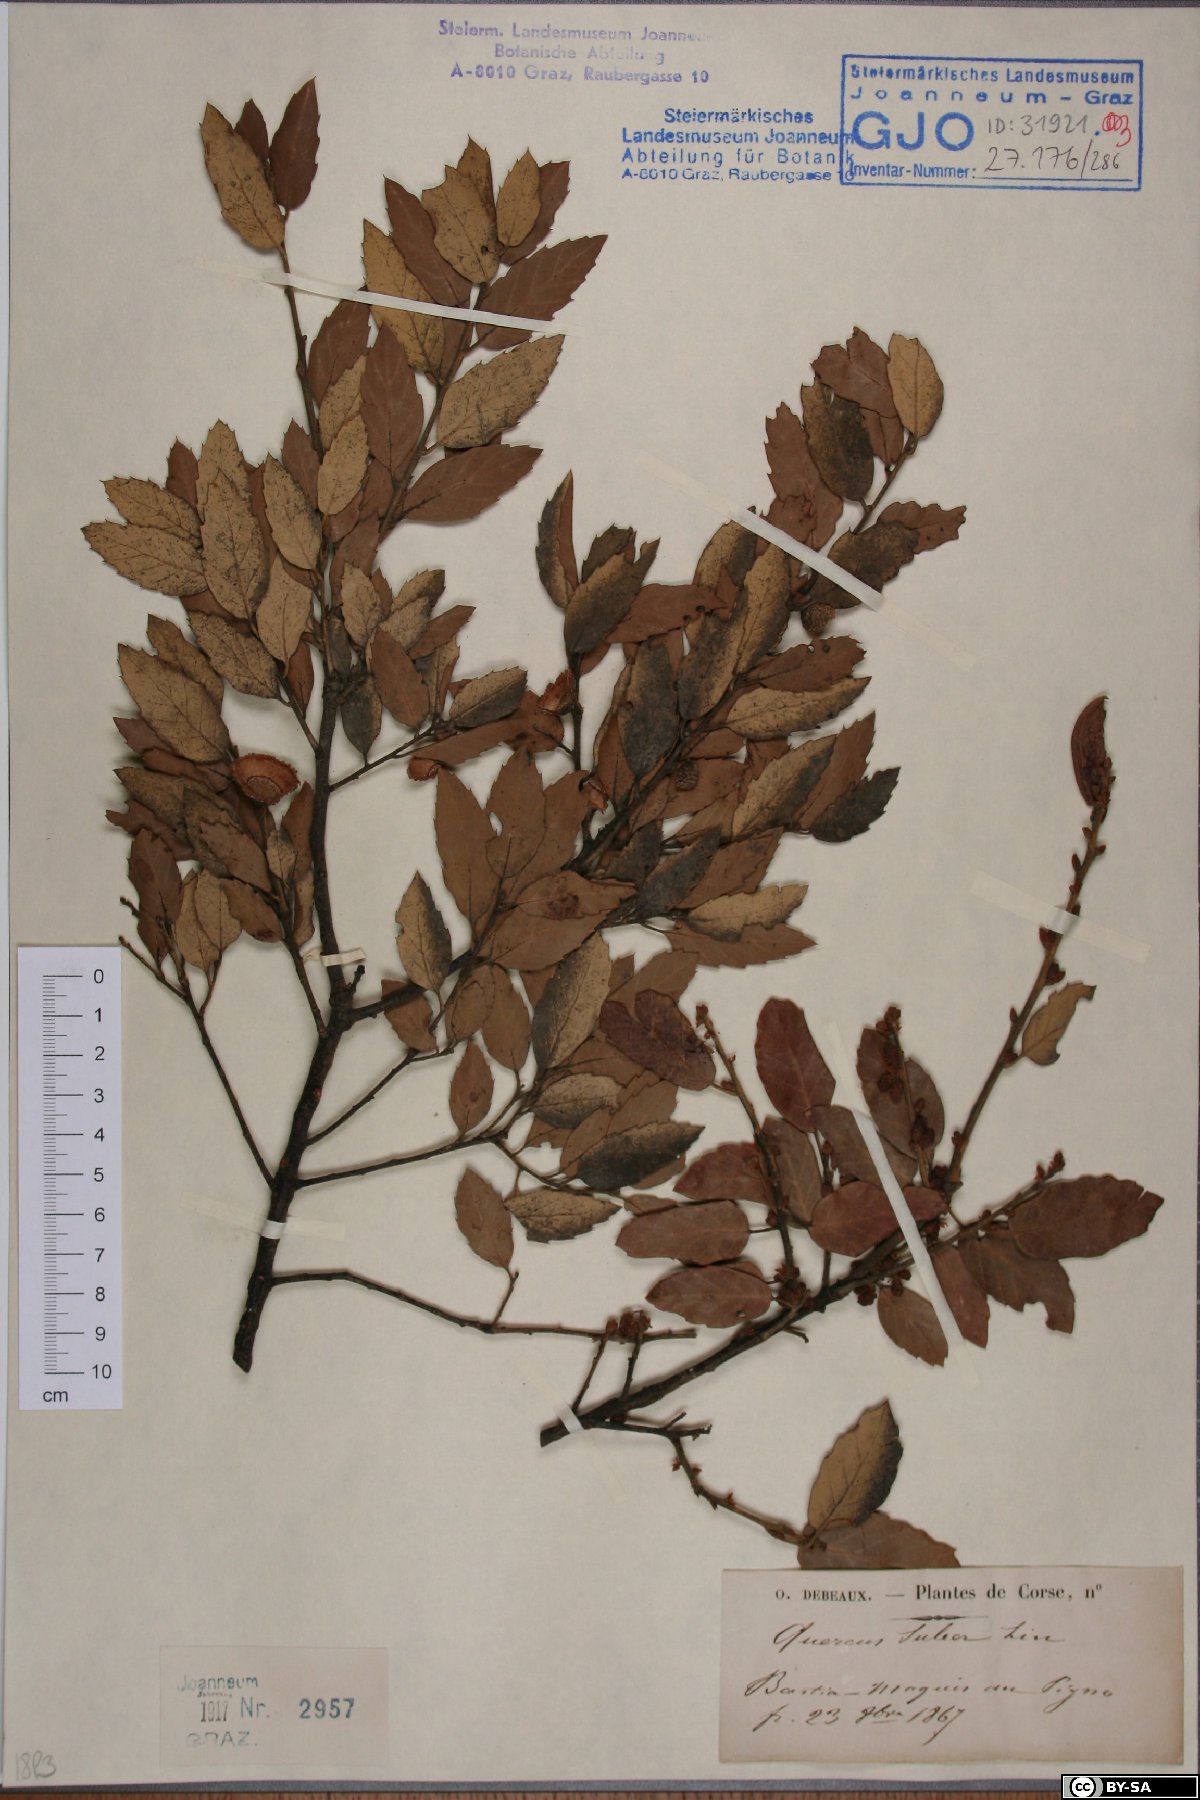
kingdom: Plantae
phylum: Tracheophyta
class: Magnoliopsida
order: Fagales
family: Fagaceae
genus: Quercus
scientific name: Quercus suber
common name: Cork oak
